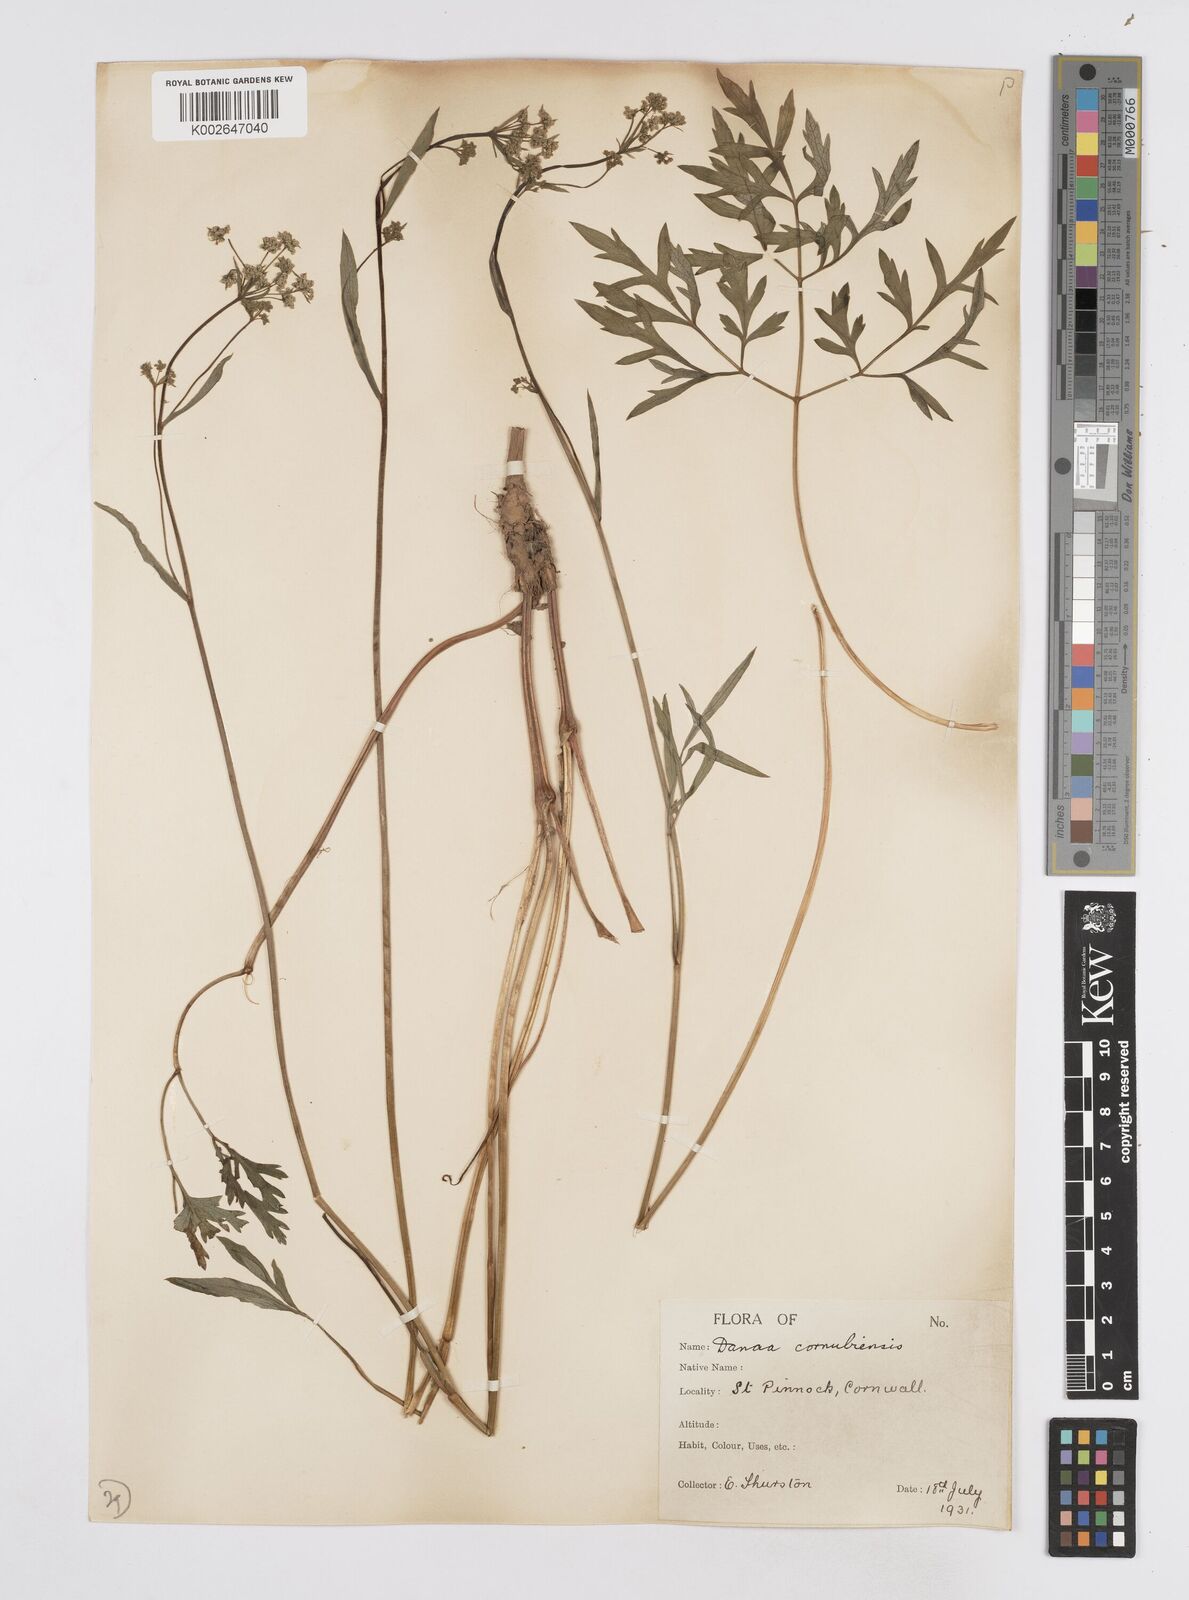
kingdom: Plantae
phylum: Tracheophyta
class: Magnoliopsida
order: Apiales
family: Apiaceae
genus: Physospermum
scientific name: Physospermum cornubiense
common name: Bladderseed
